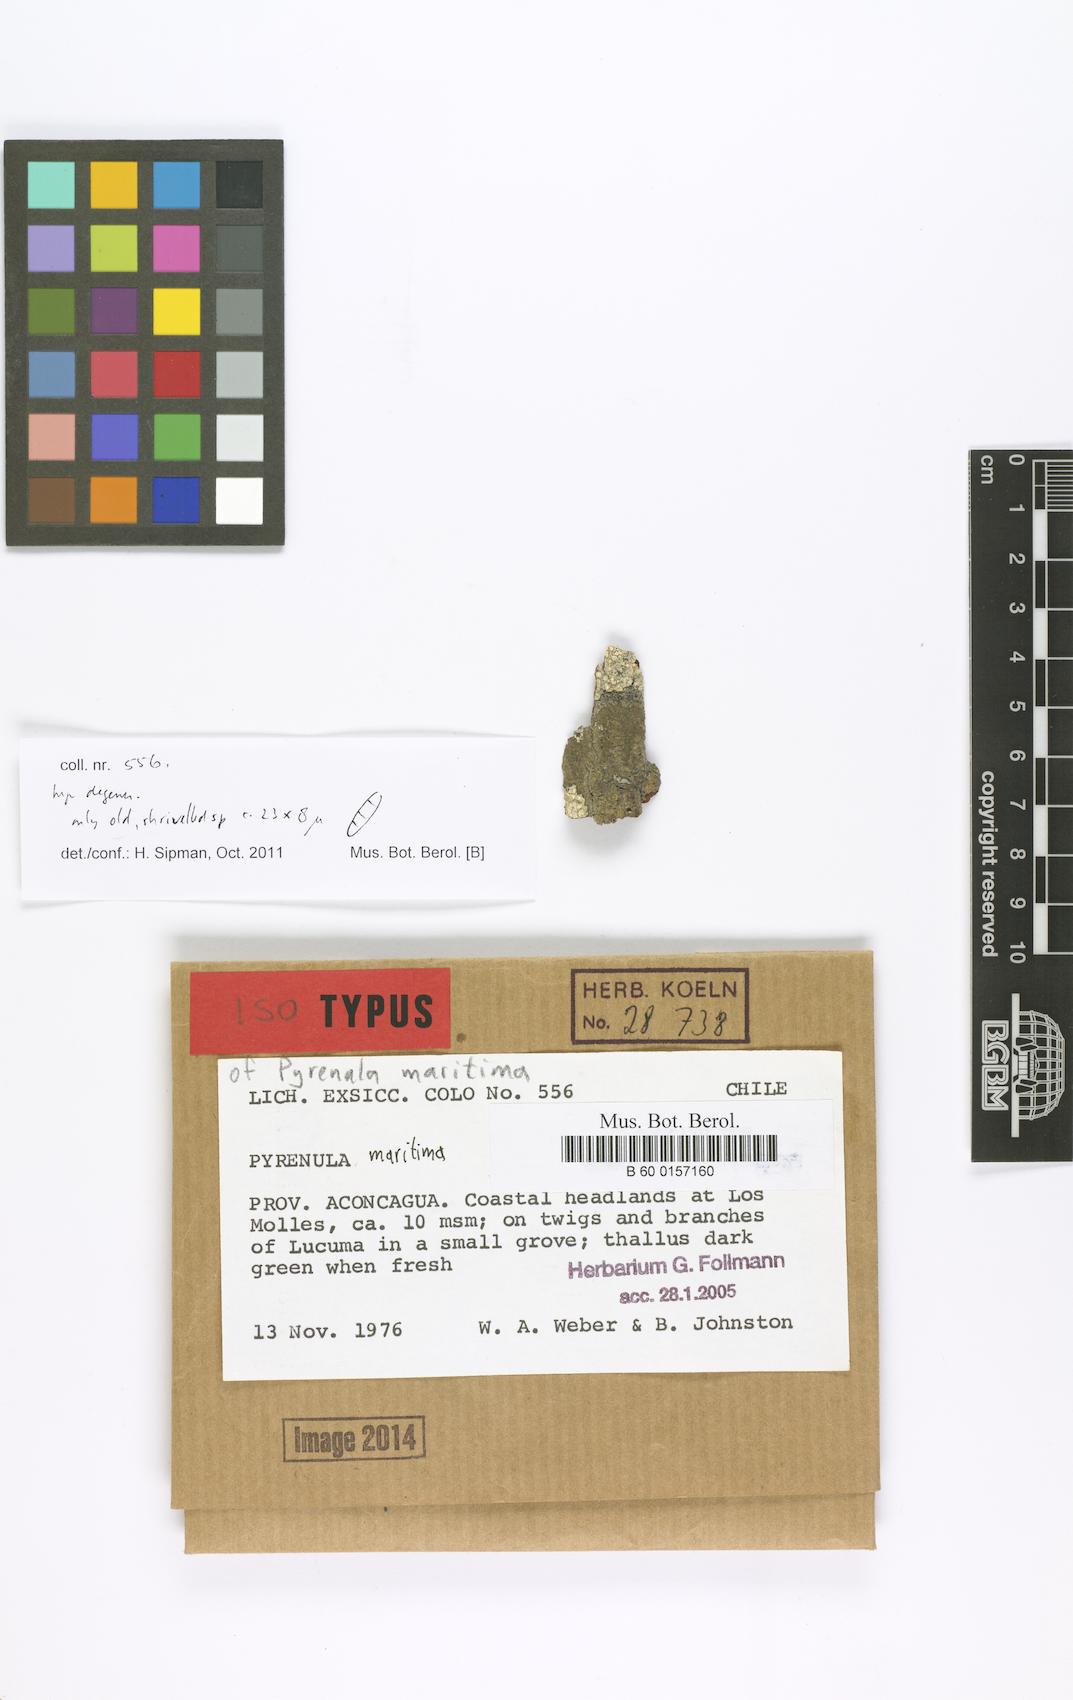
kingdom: Fungi
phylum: Ascomycota
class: Eurotiomycetes
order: Pyrenulales
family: Pyrenulaceae
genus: Pyrenula
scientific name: Pyrenula maritima
